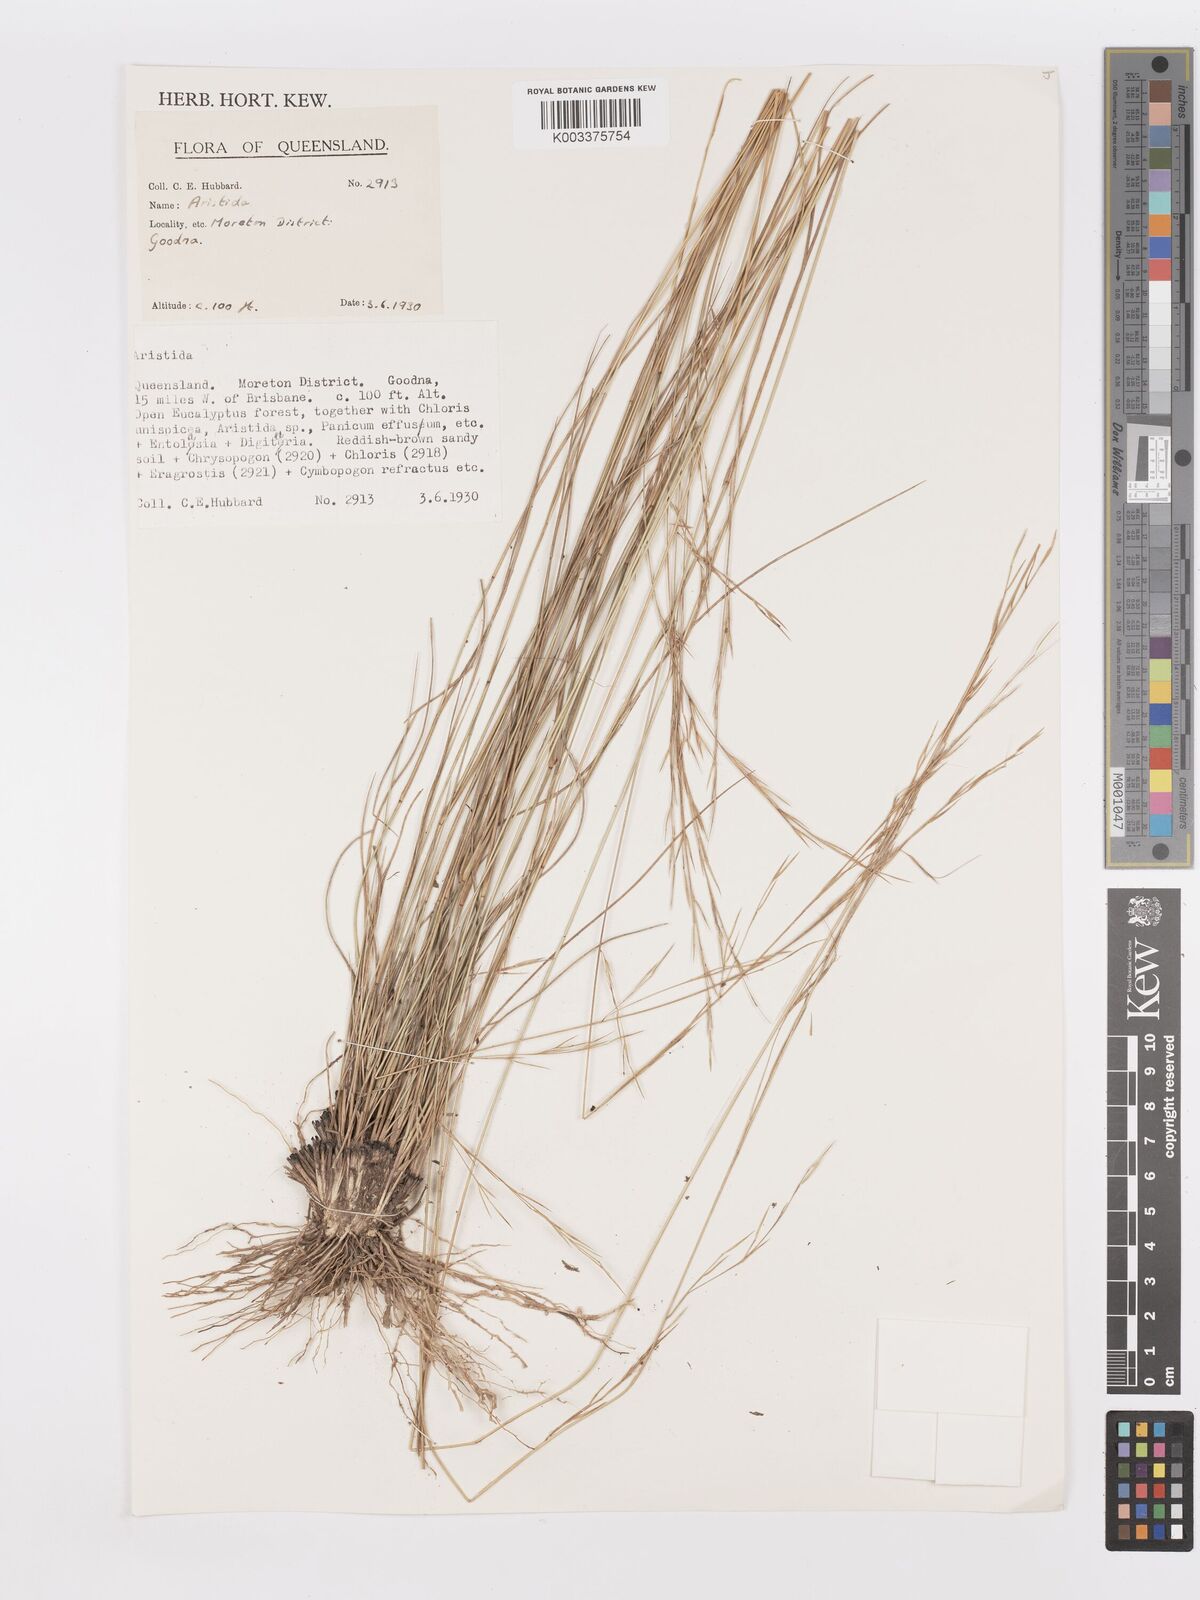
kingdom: Plantae
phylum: Tracheophyta
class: Liliopsida
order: Poales
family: Poaceae
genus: Aristida
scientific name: Aristida
